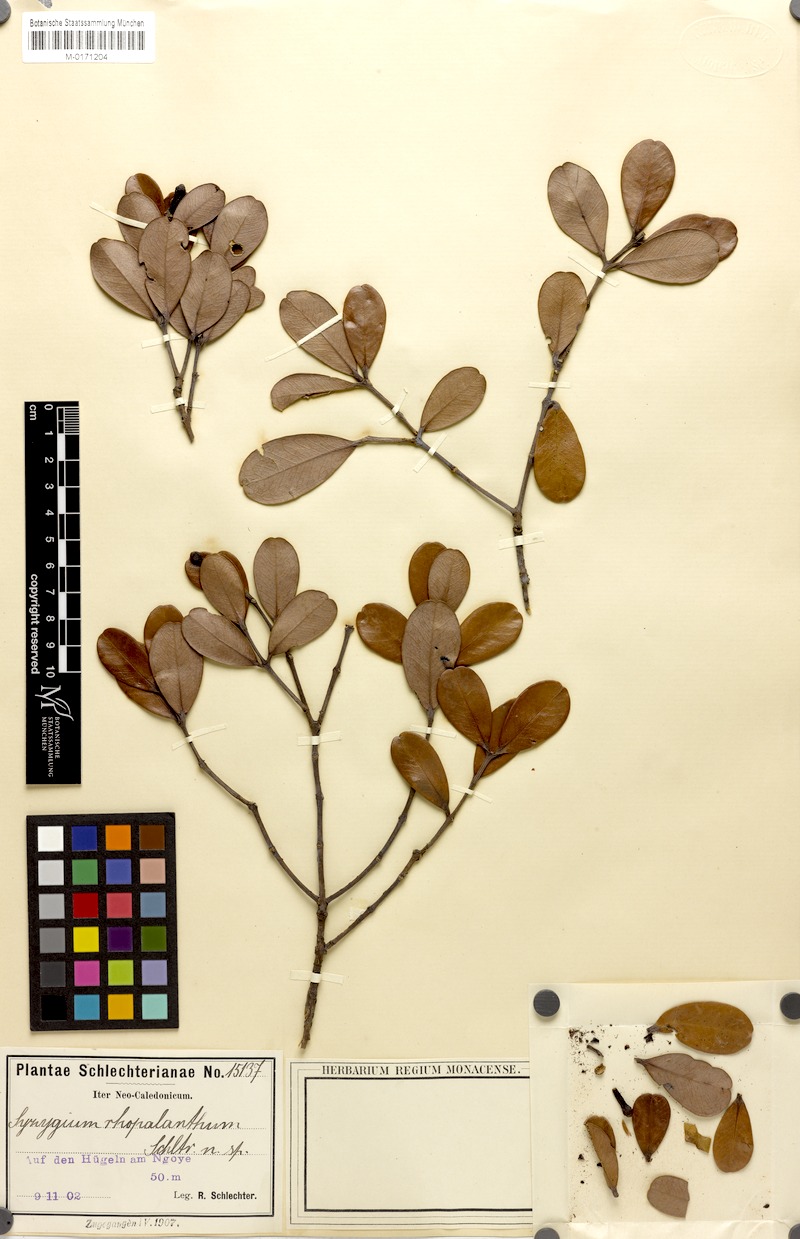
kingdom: Plantae
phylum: Tracheophyta
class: Magnoliopsida
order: Myrtales
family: Myrtaceae
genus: Syzygium
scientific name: Syzygium rhopalanthum
